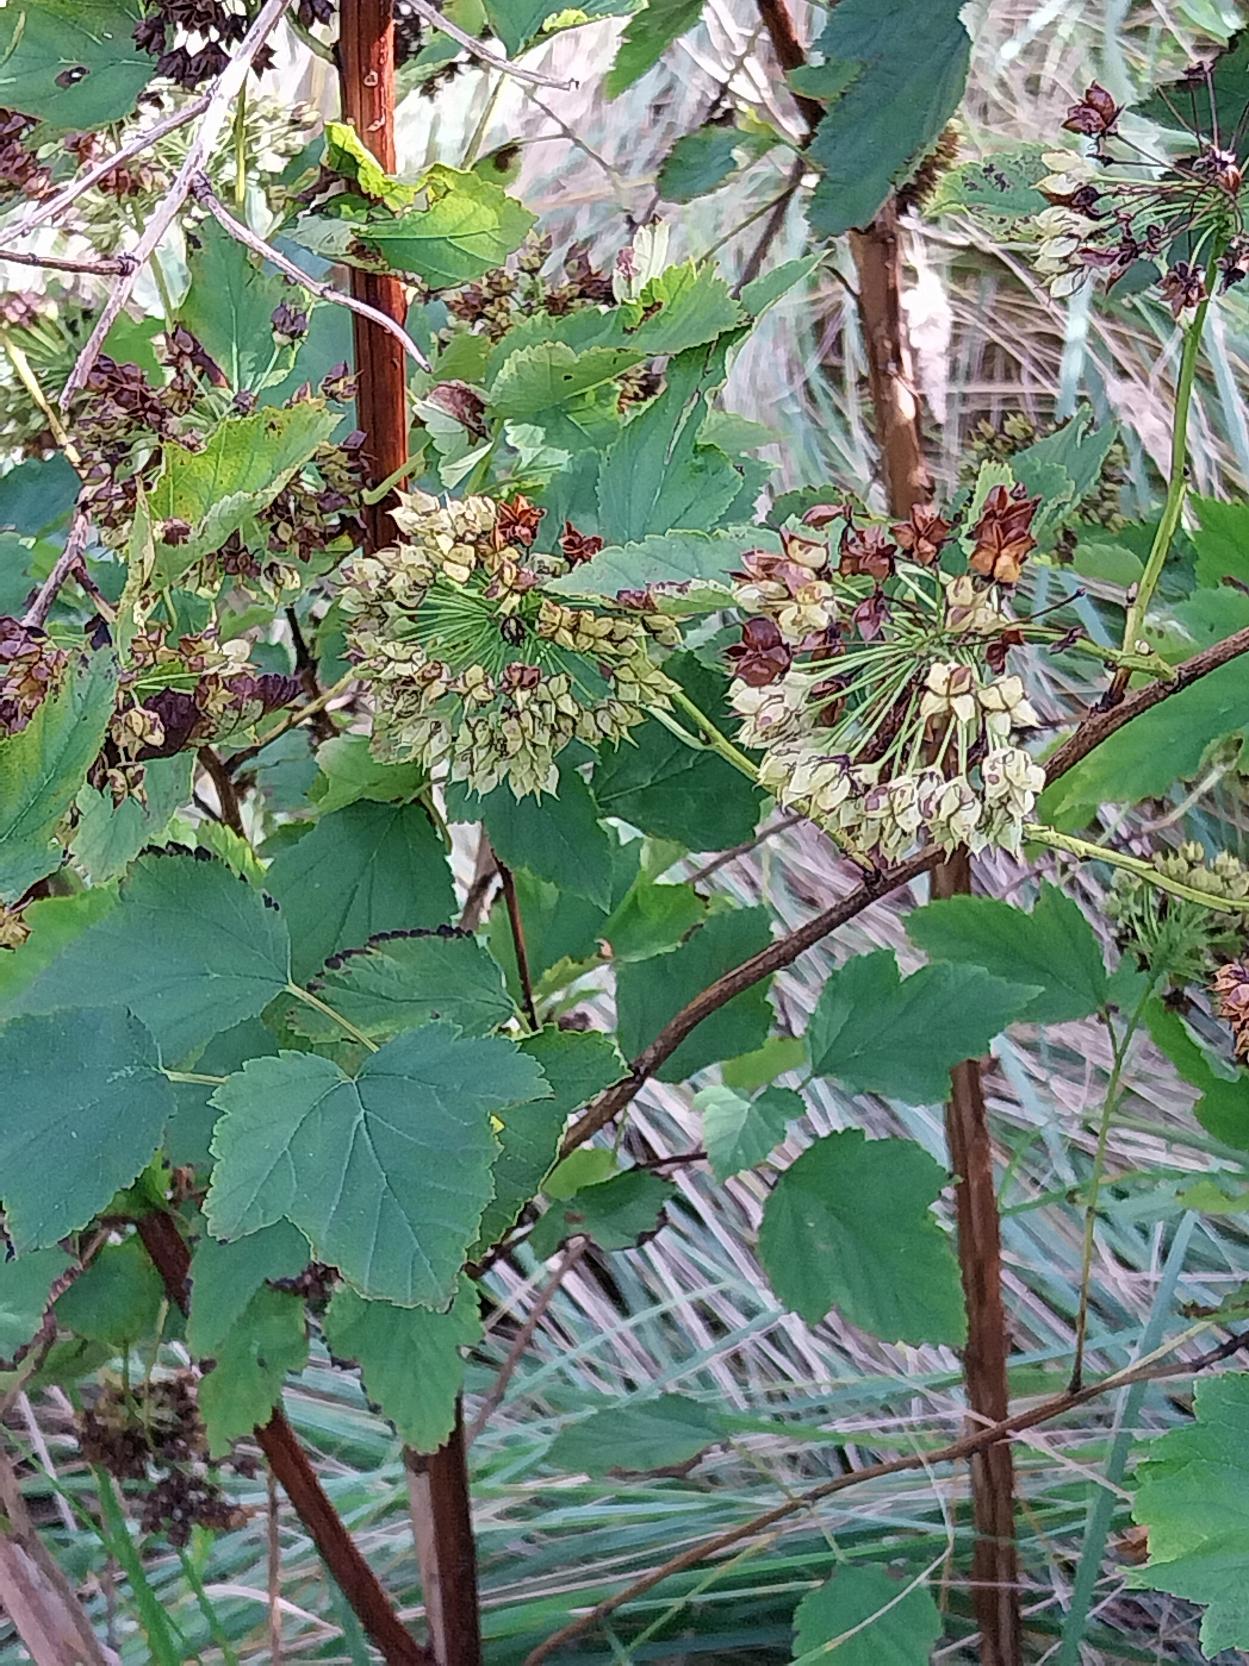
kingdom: Plantae
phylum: Tracheophyta
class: Magnoliopsida
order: Rosales
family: Rosaceae
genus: Physocarpus
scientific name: Physocarpus opulifolius
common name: Almindelig blærespiræa
